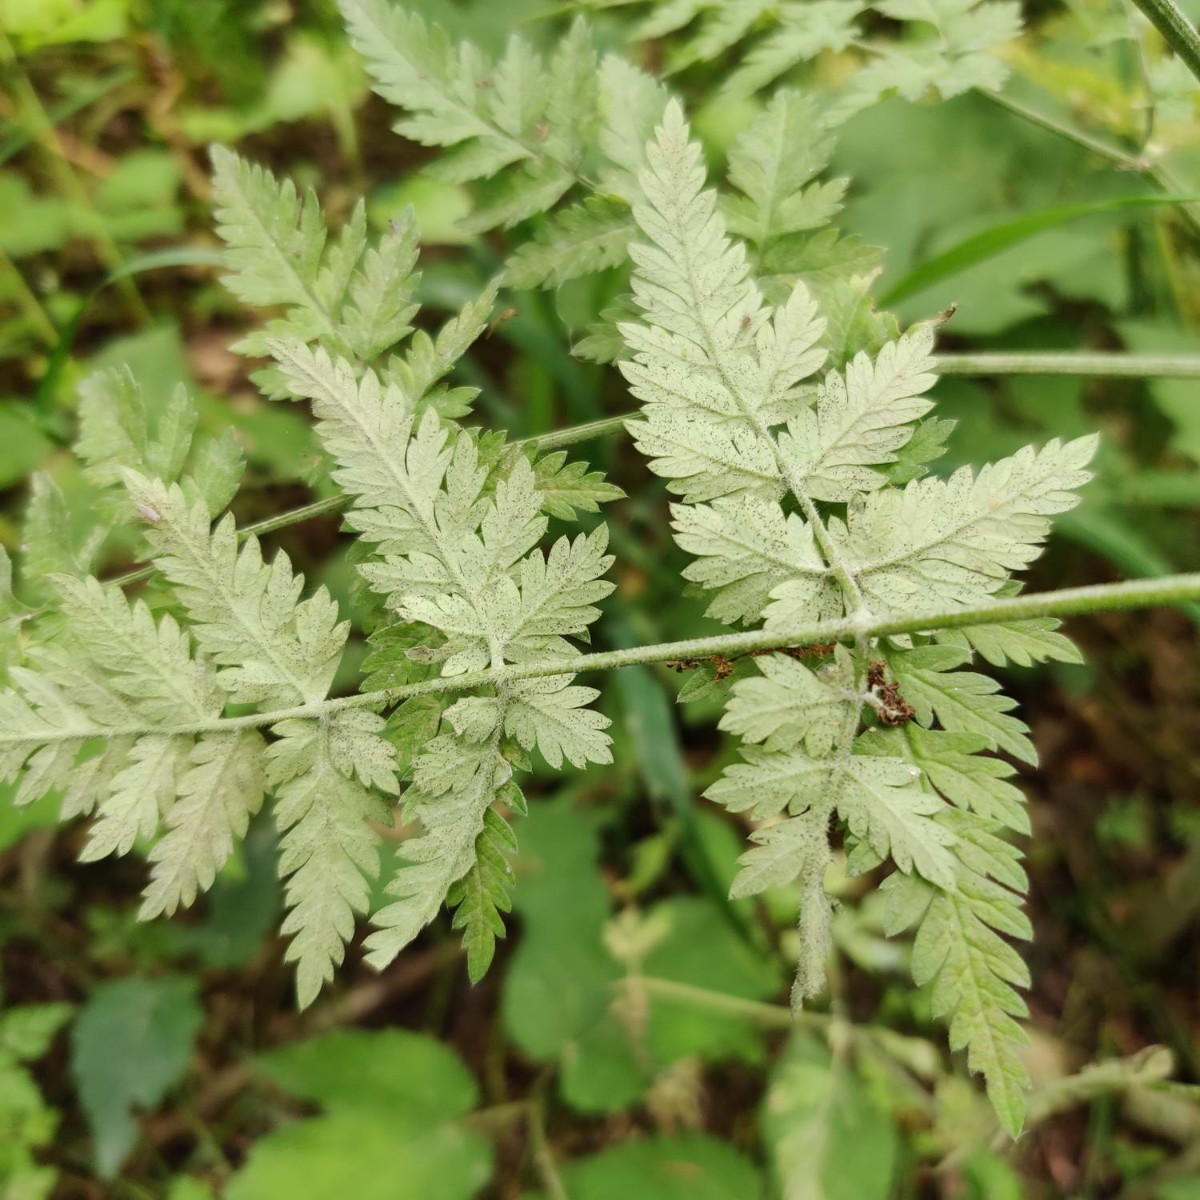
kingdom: Fungi
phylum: Ascomycota
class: Leotiomycetes
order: Helotiales
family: Erysiphaceae
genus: Erysiphe
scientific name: Erysiphe heraclei
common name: skærmplante-meldug
